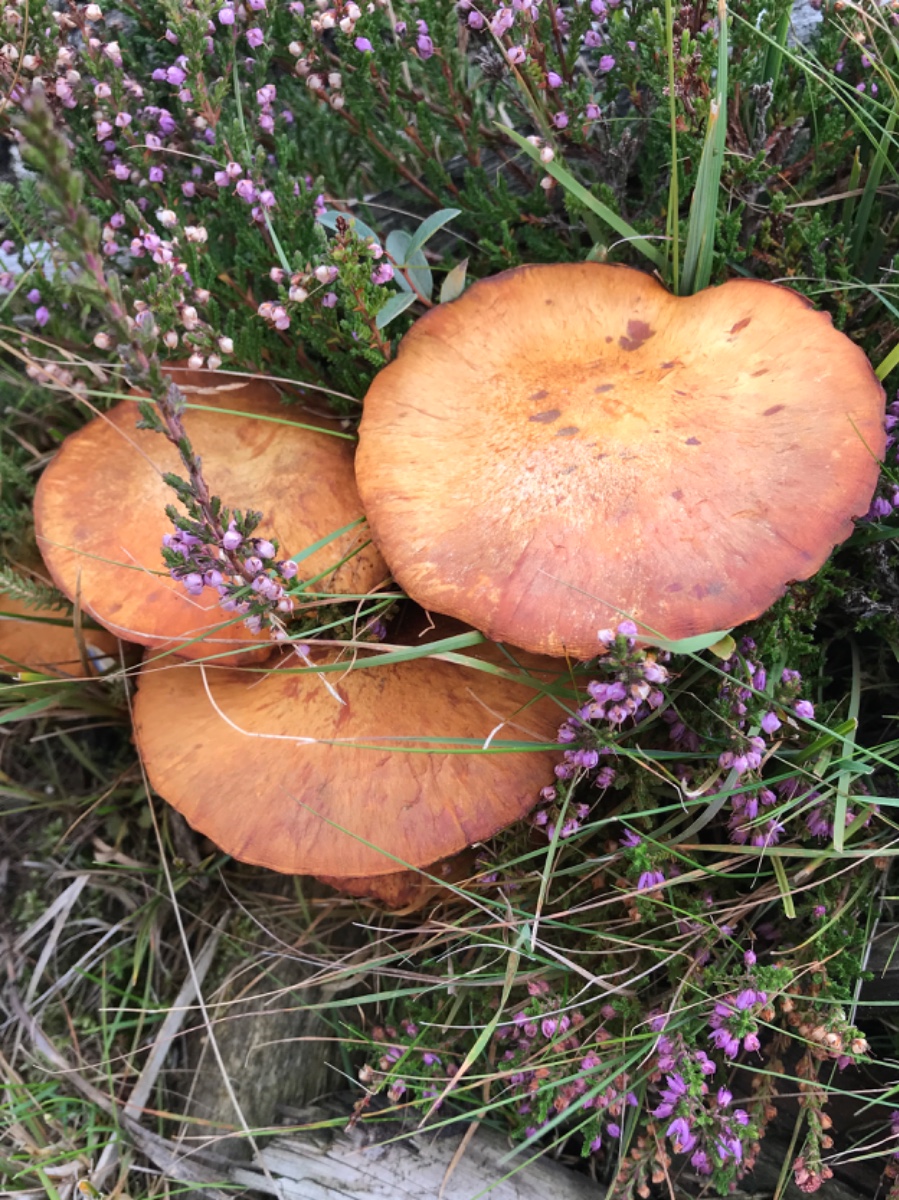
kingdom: Fungi
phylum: Basidiomycota
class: Agaricomycetes
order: Agaricales
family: Hymenogastraceae
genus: Gymnopilus
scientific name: Gymnopilus spectabilis
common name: fibret flammehat
